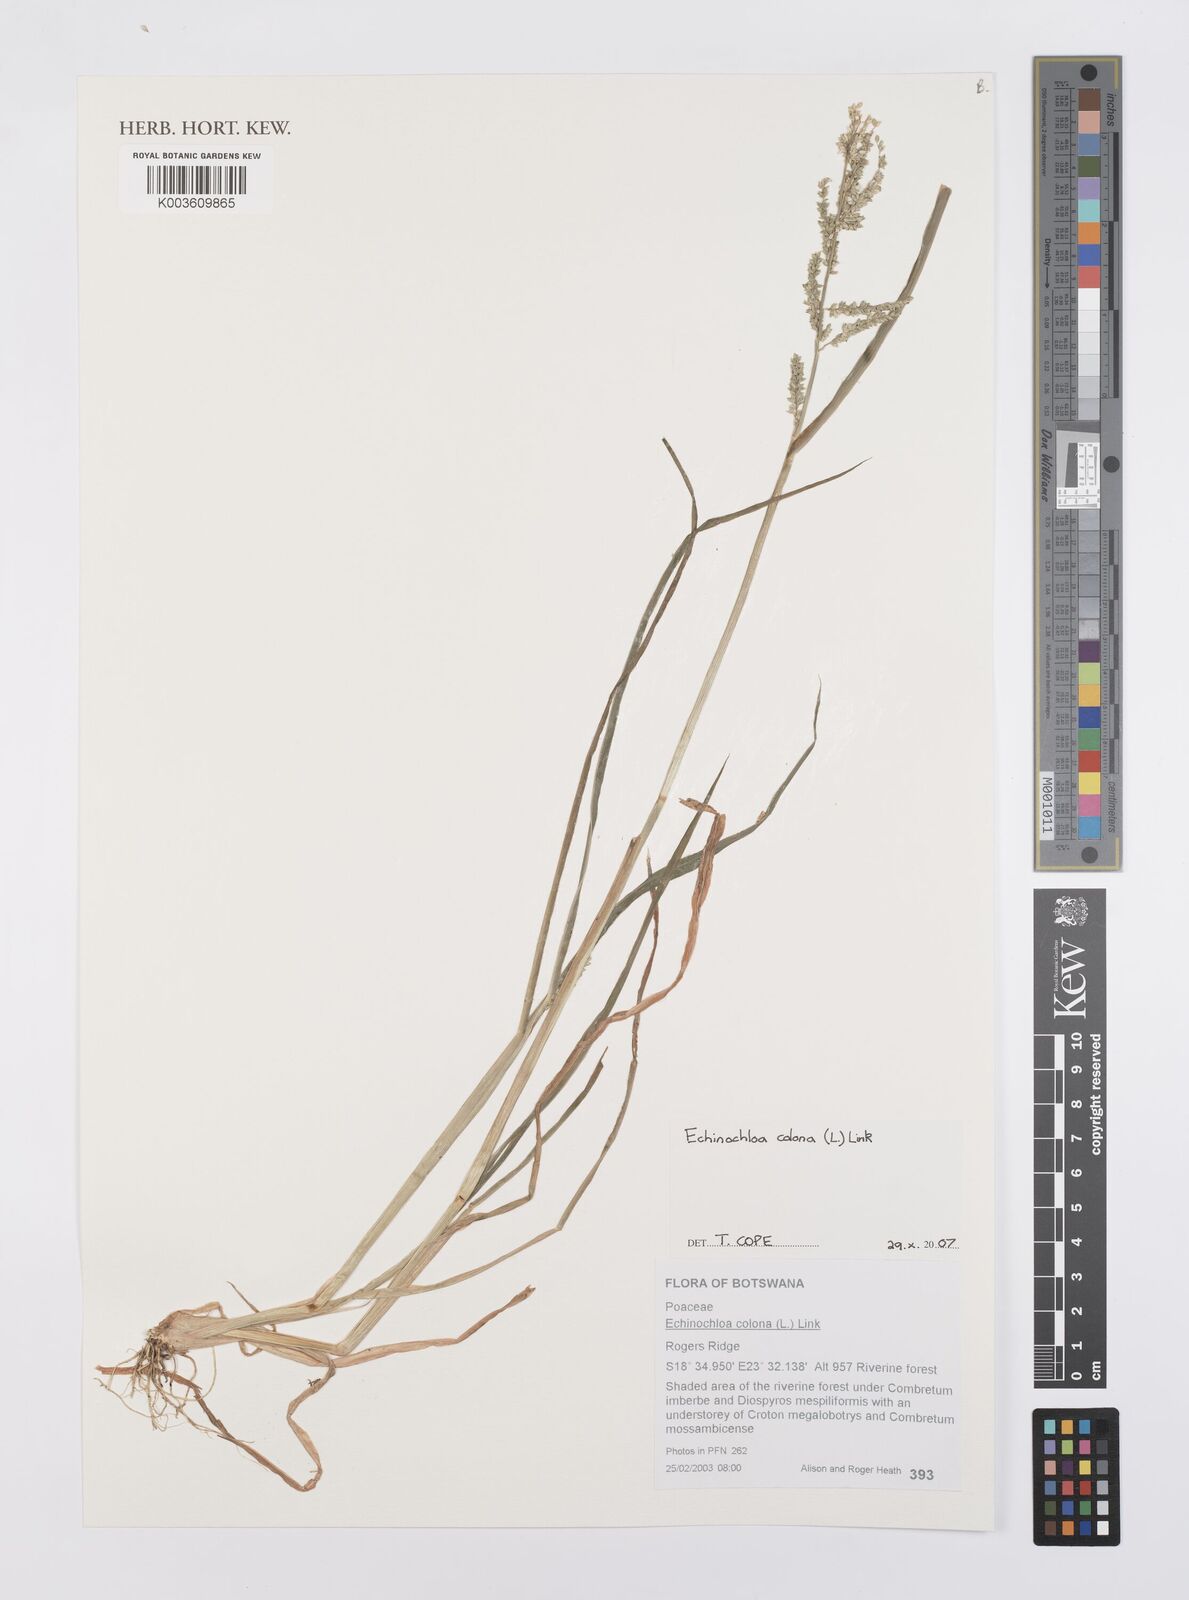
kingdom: Plantae
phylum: Tracheophyta
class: Liliopsida
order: Poales
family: Poaceae
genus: Echinochloa
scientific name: Echinochloa colonum
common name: Jungle rice
